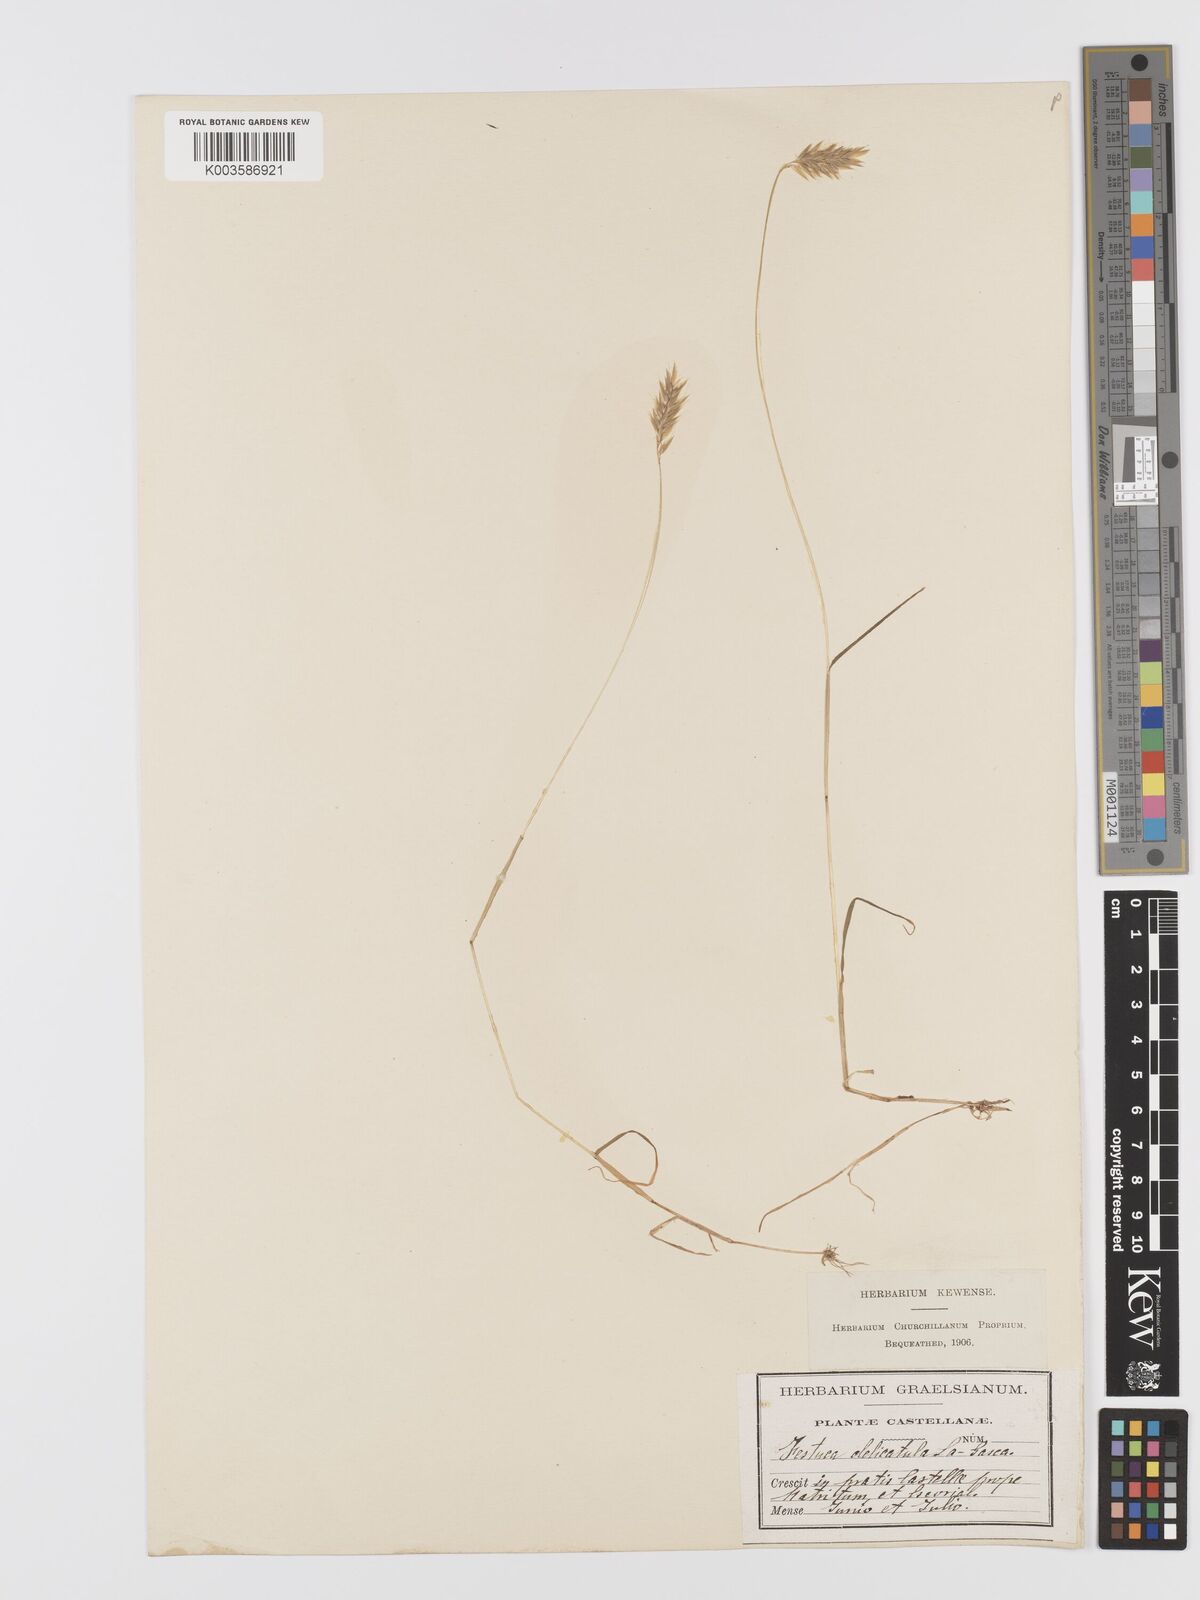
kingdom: Plantae
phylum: Tracheophyta
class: Liliopsida
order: Poales
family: Poaceae
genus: Anthoxanthum
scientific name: Anthoxanthum gracile
